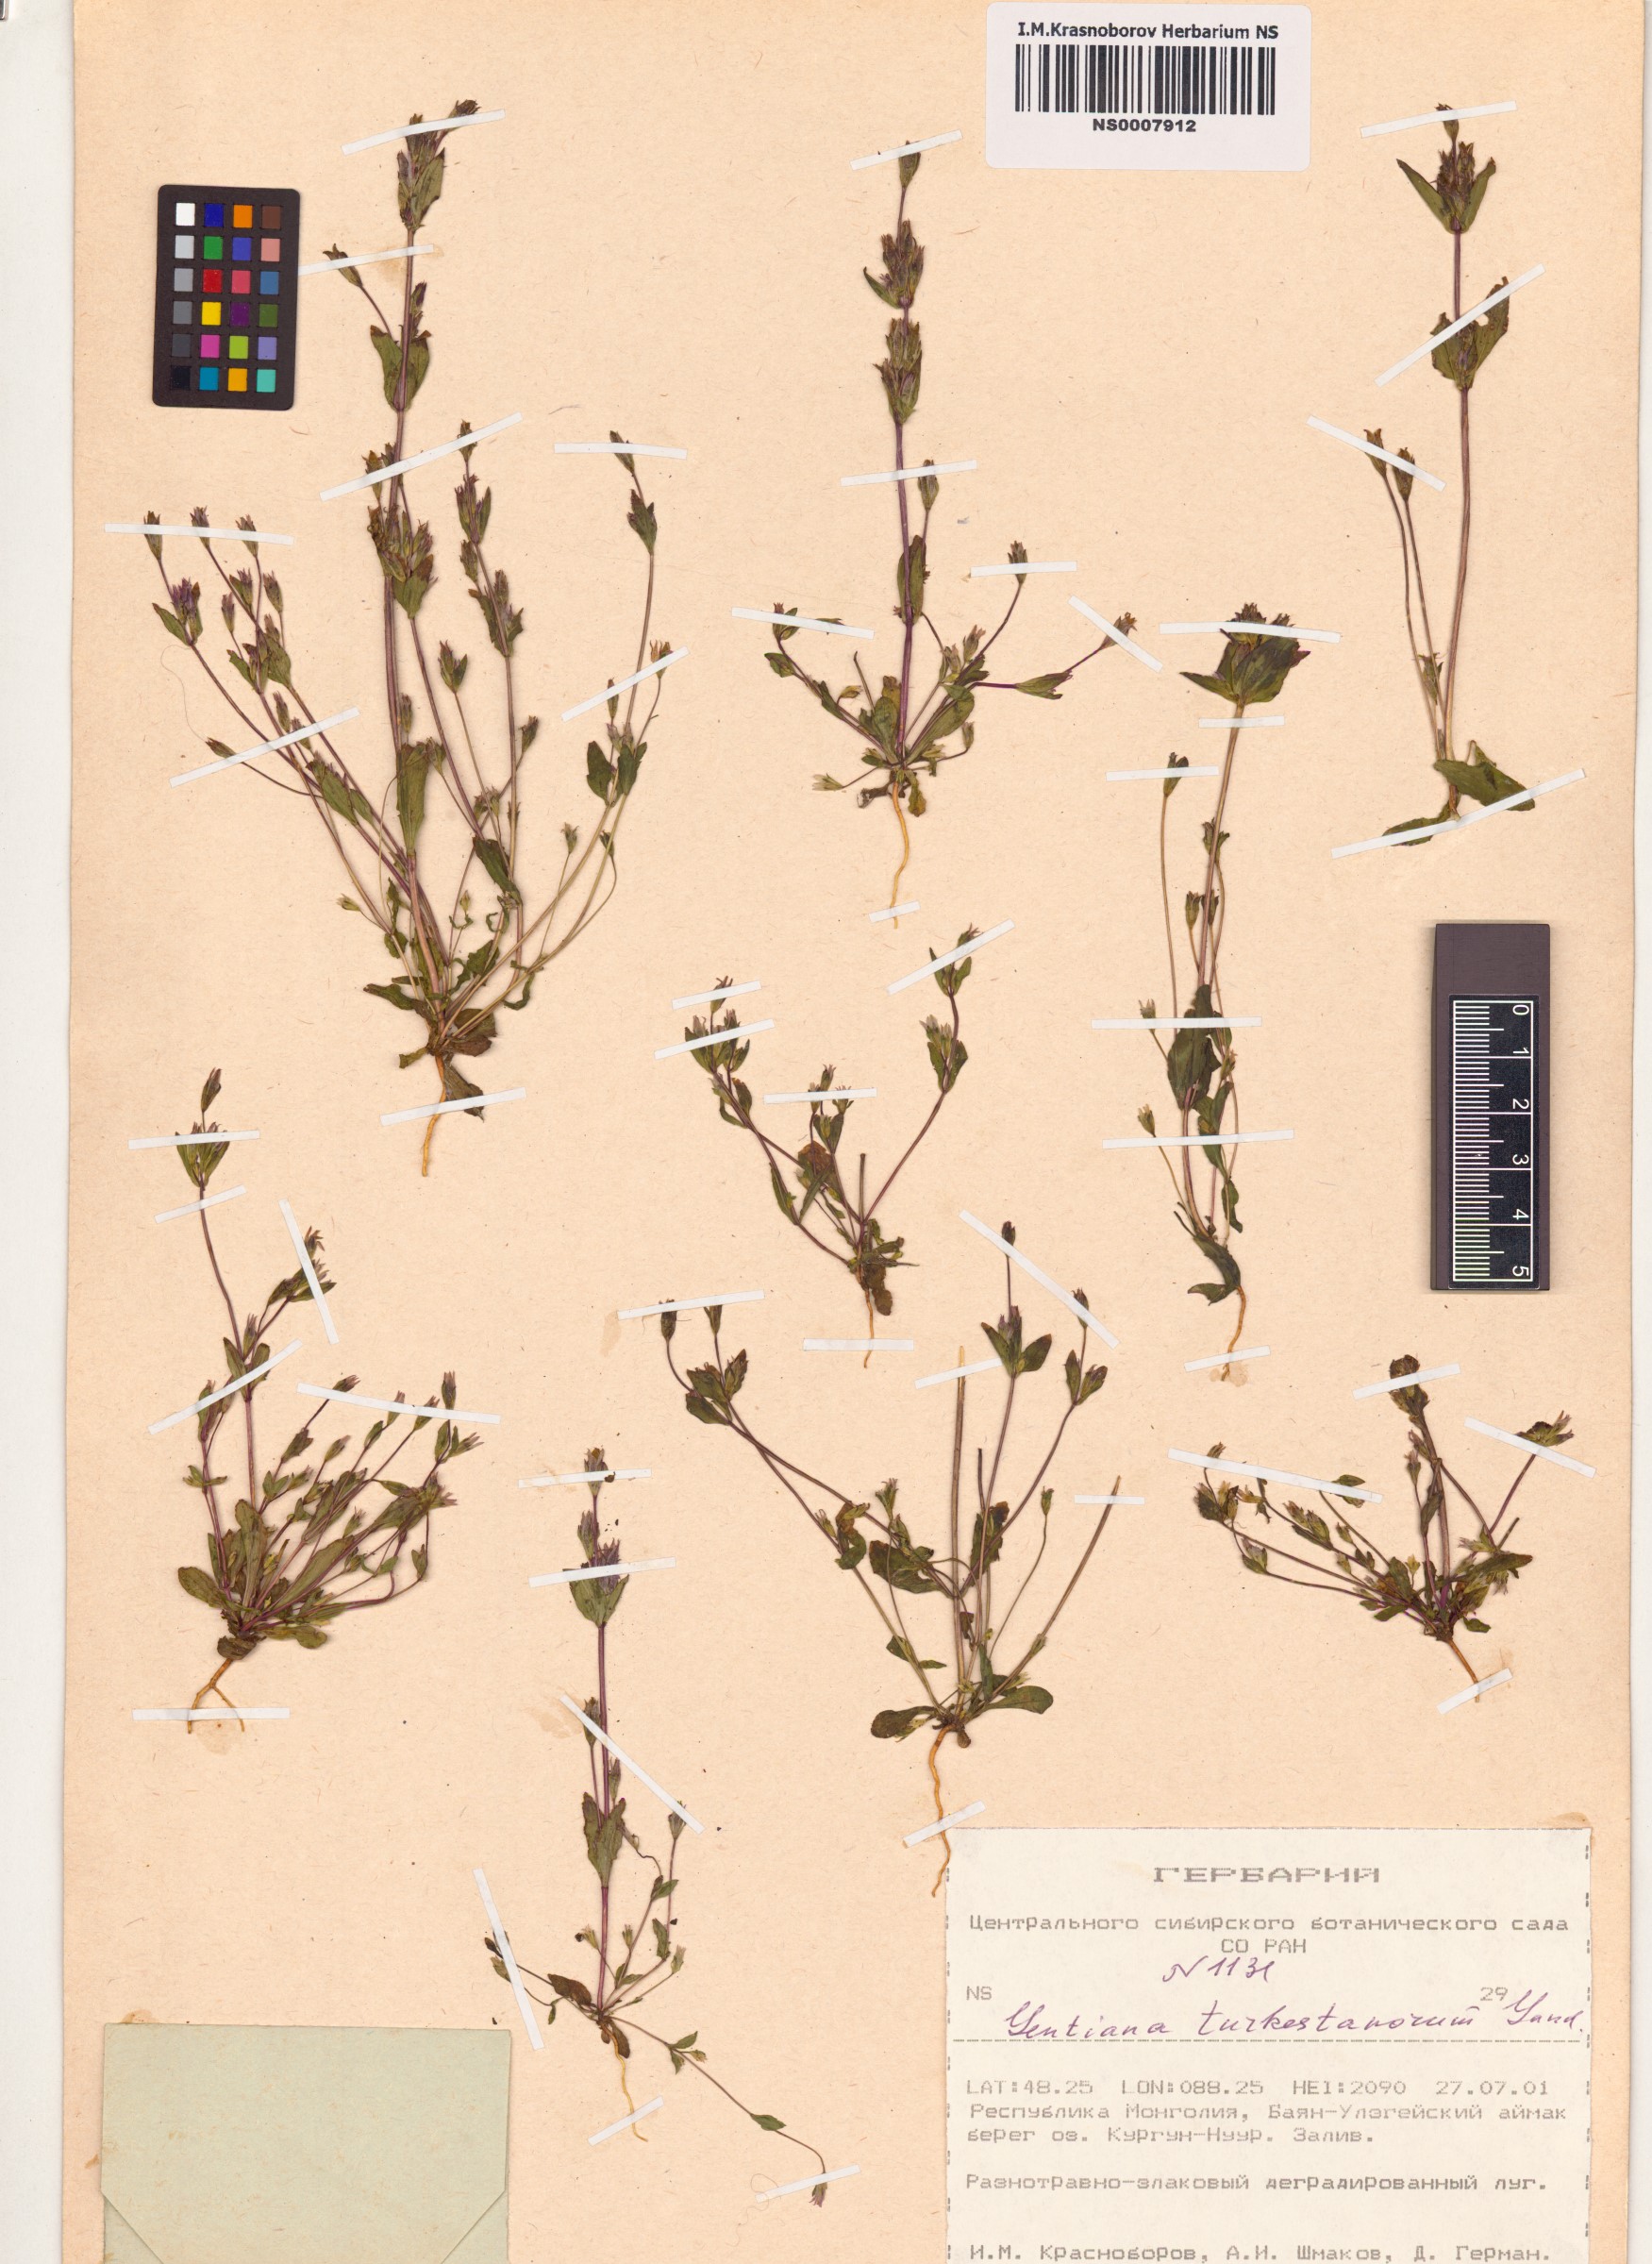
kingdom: Plantae
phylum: Tracheophyta
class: Magnoliopsida
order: Gentianales
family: Gentianaceae
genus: Gentianella
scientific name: Gentianella turkestanorum
